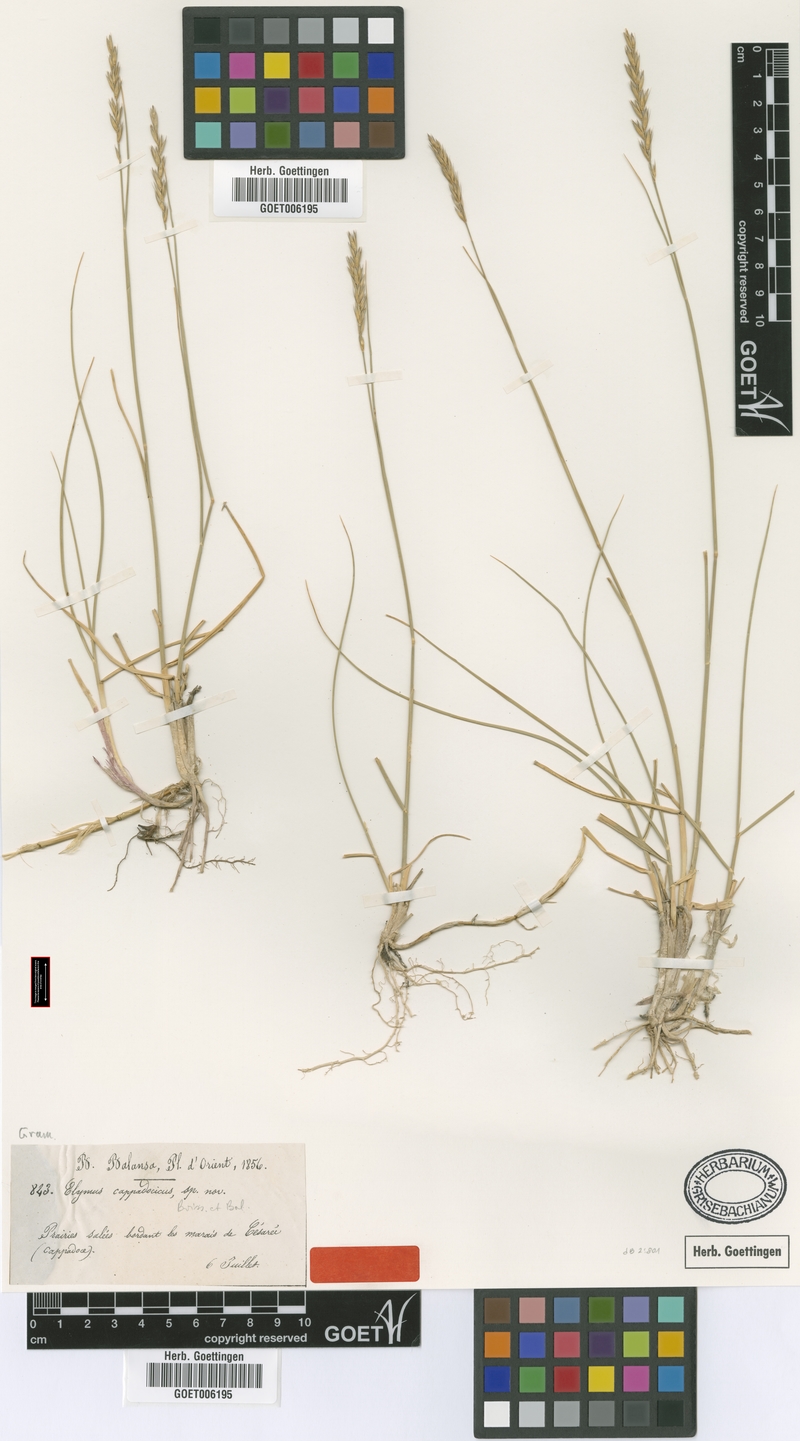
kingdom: Plantae
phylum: Tracheophyta
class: Liliopsida
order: Poales
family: Poaceae
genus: Leymus
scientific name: Leymus cappadocicus
